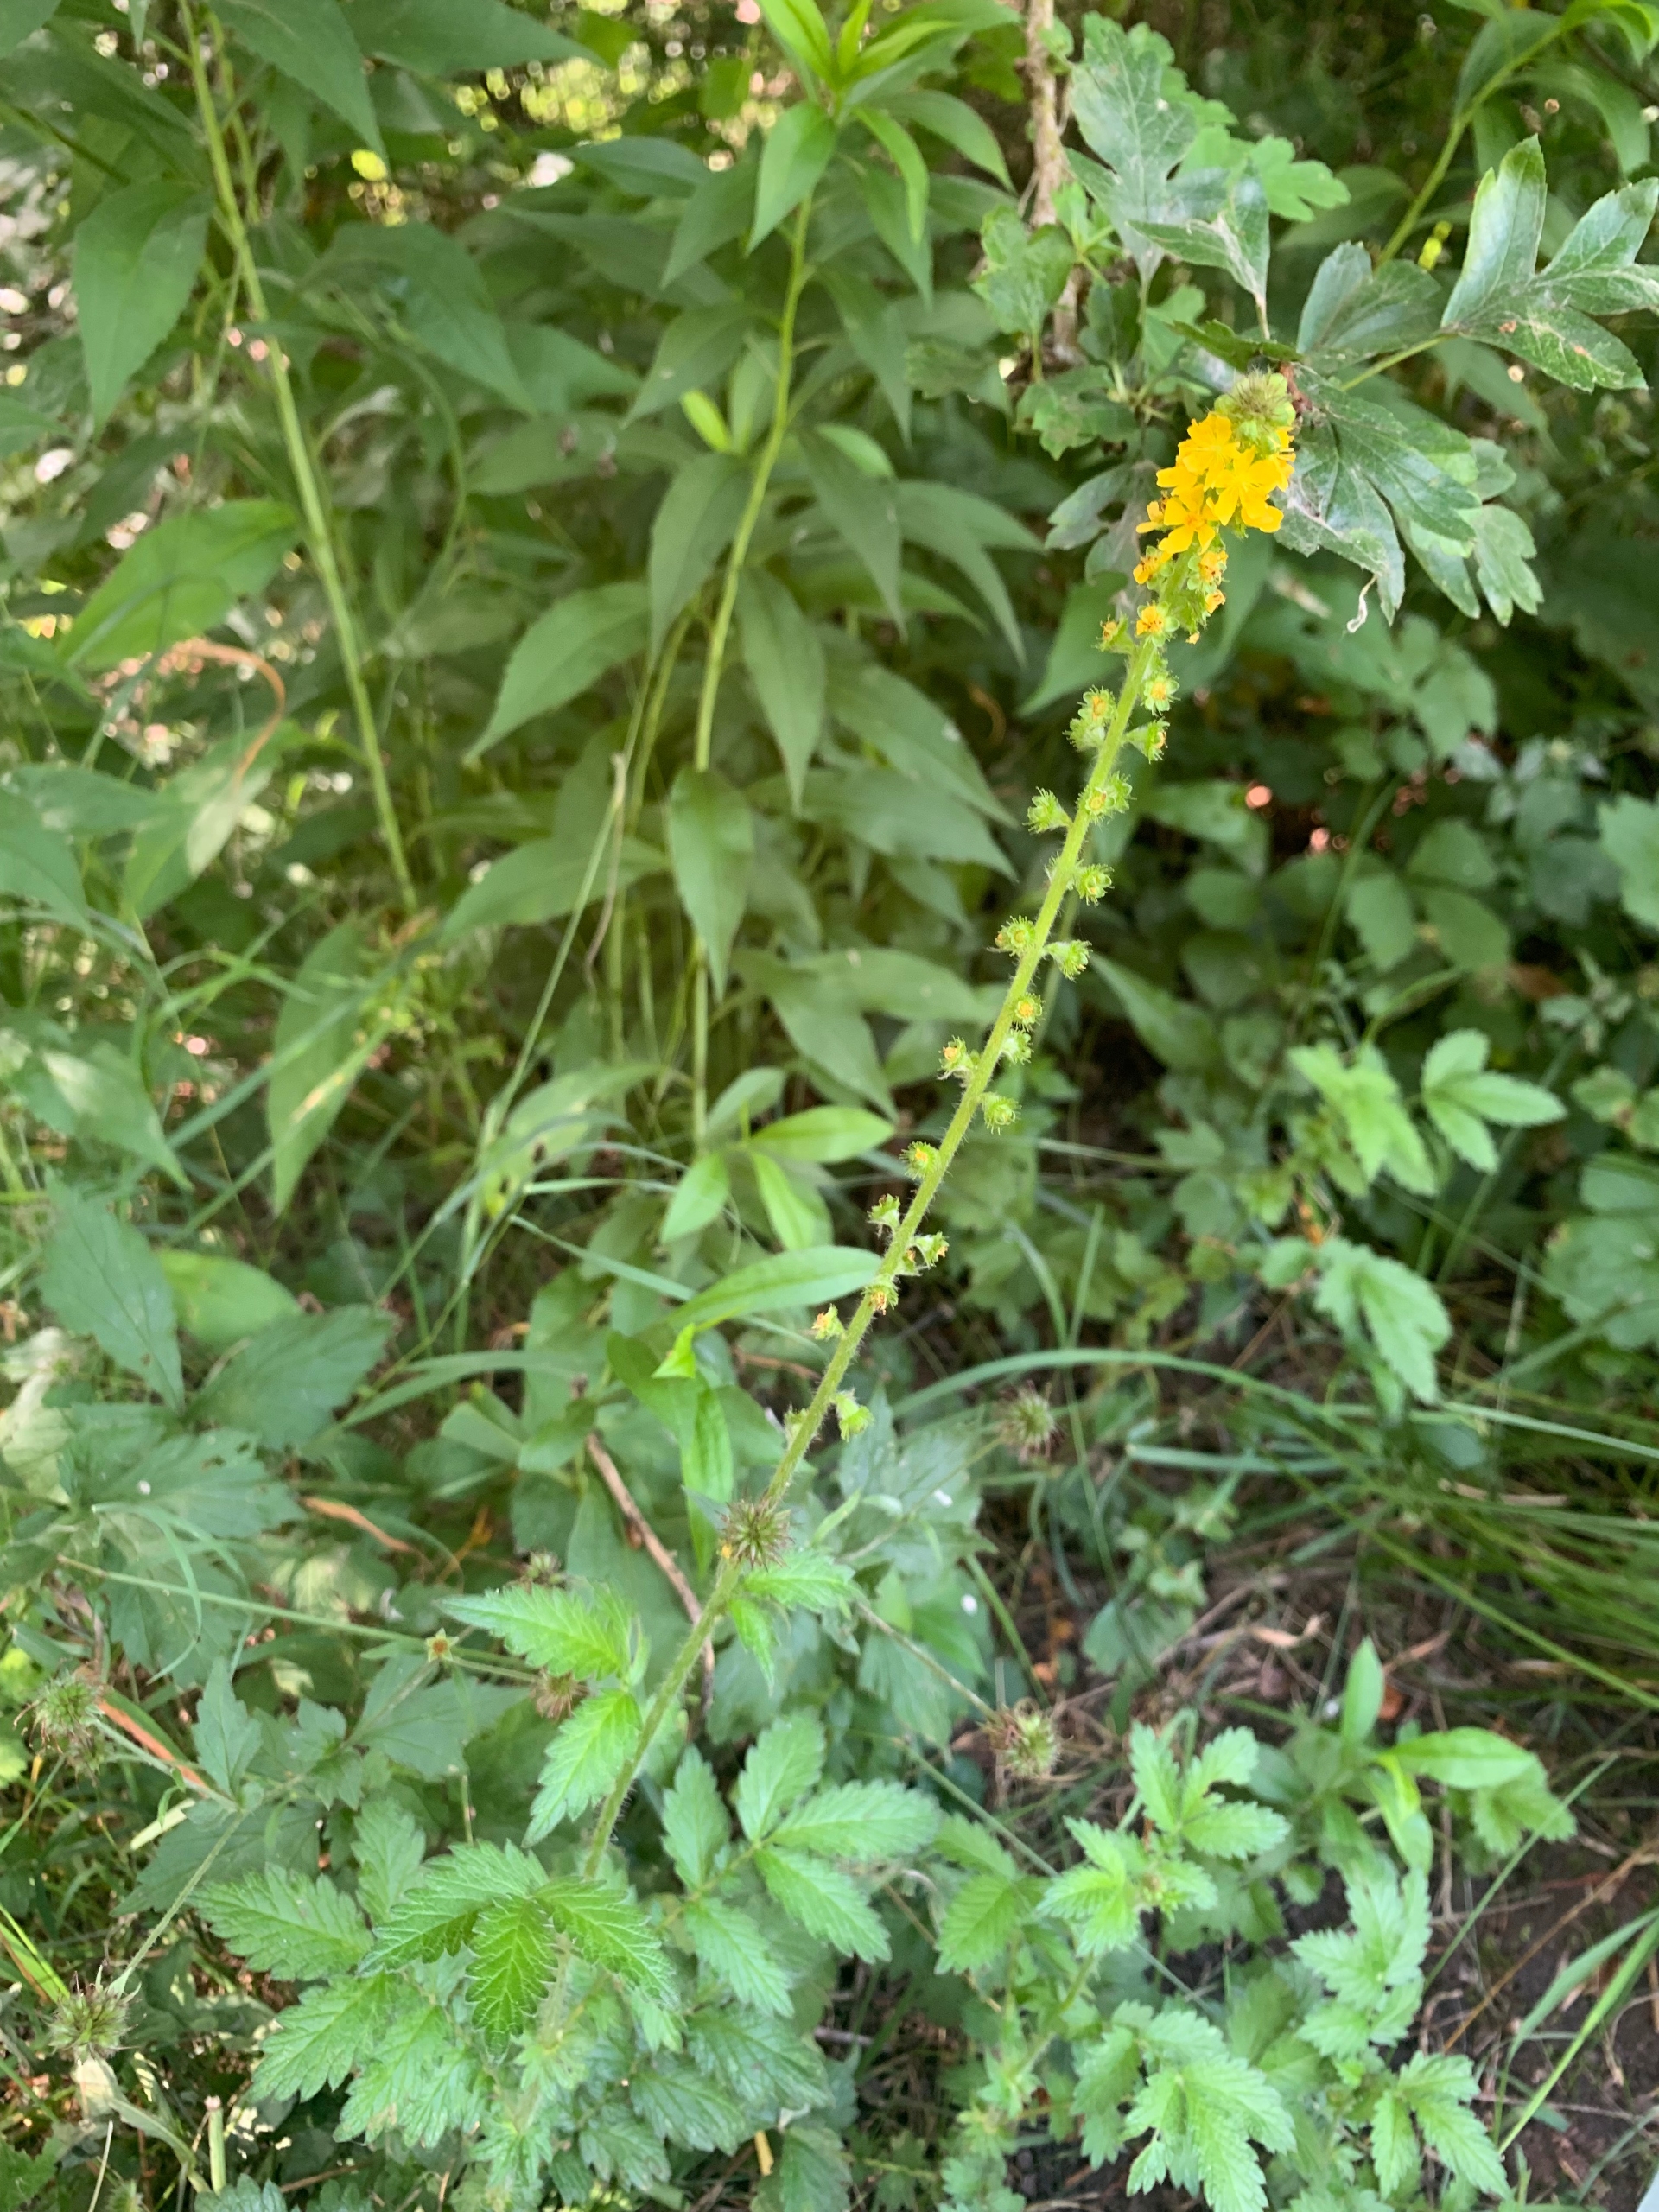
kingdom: Plantae
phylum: Tracheophyta
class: Magnoliopsida
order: Rosales
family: Rosaceae
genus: Agrimonia
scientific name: Agrimonia eupatoria
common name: Almindelig agermåne
